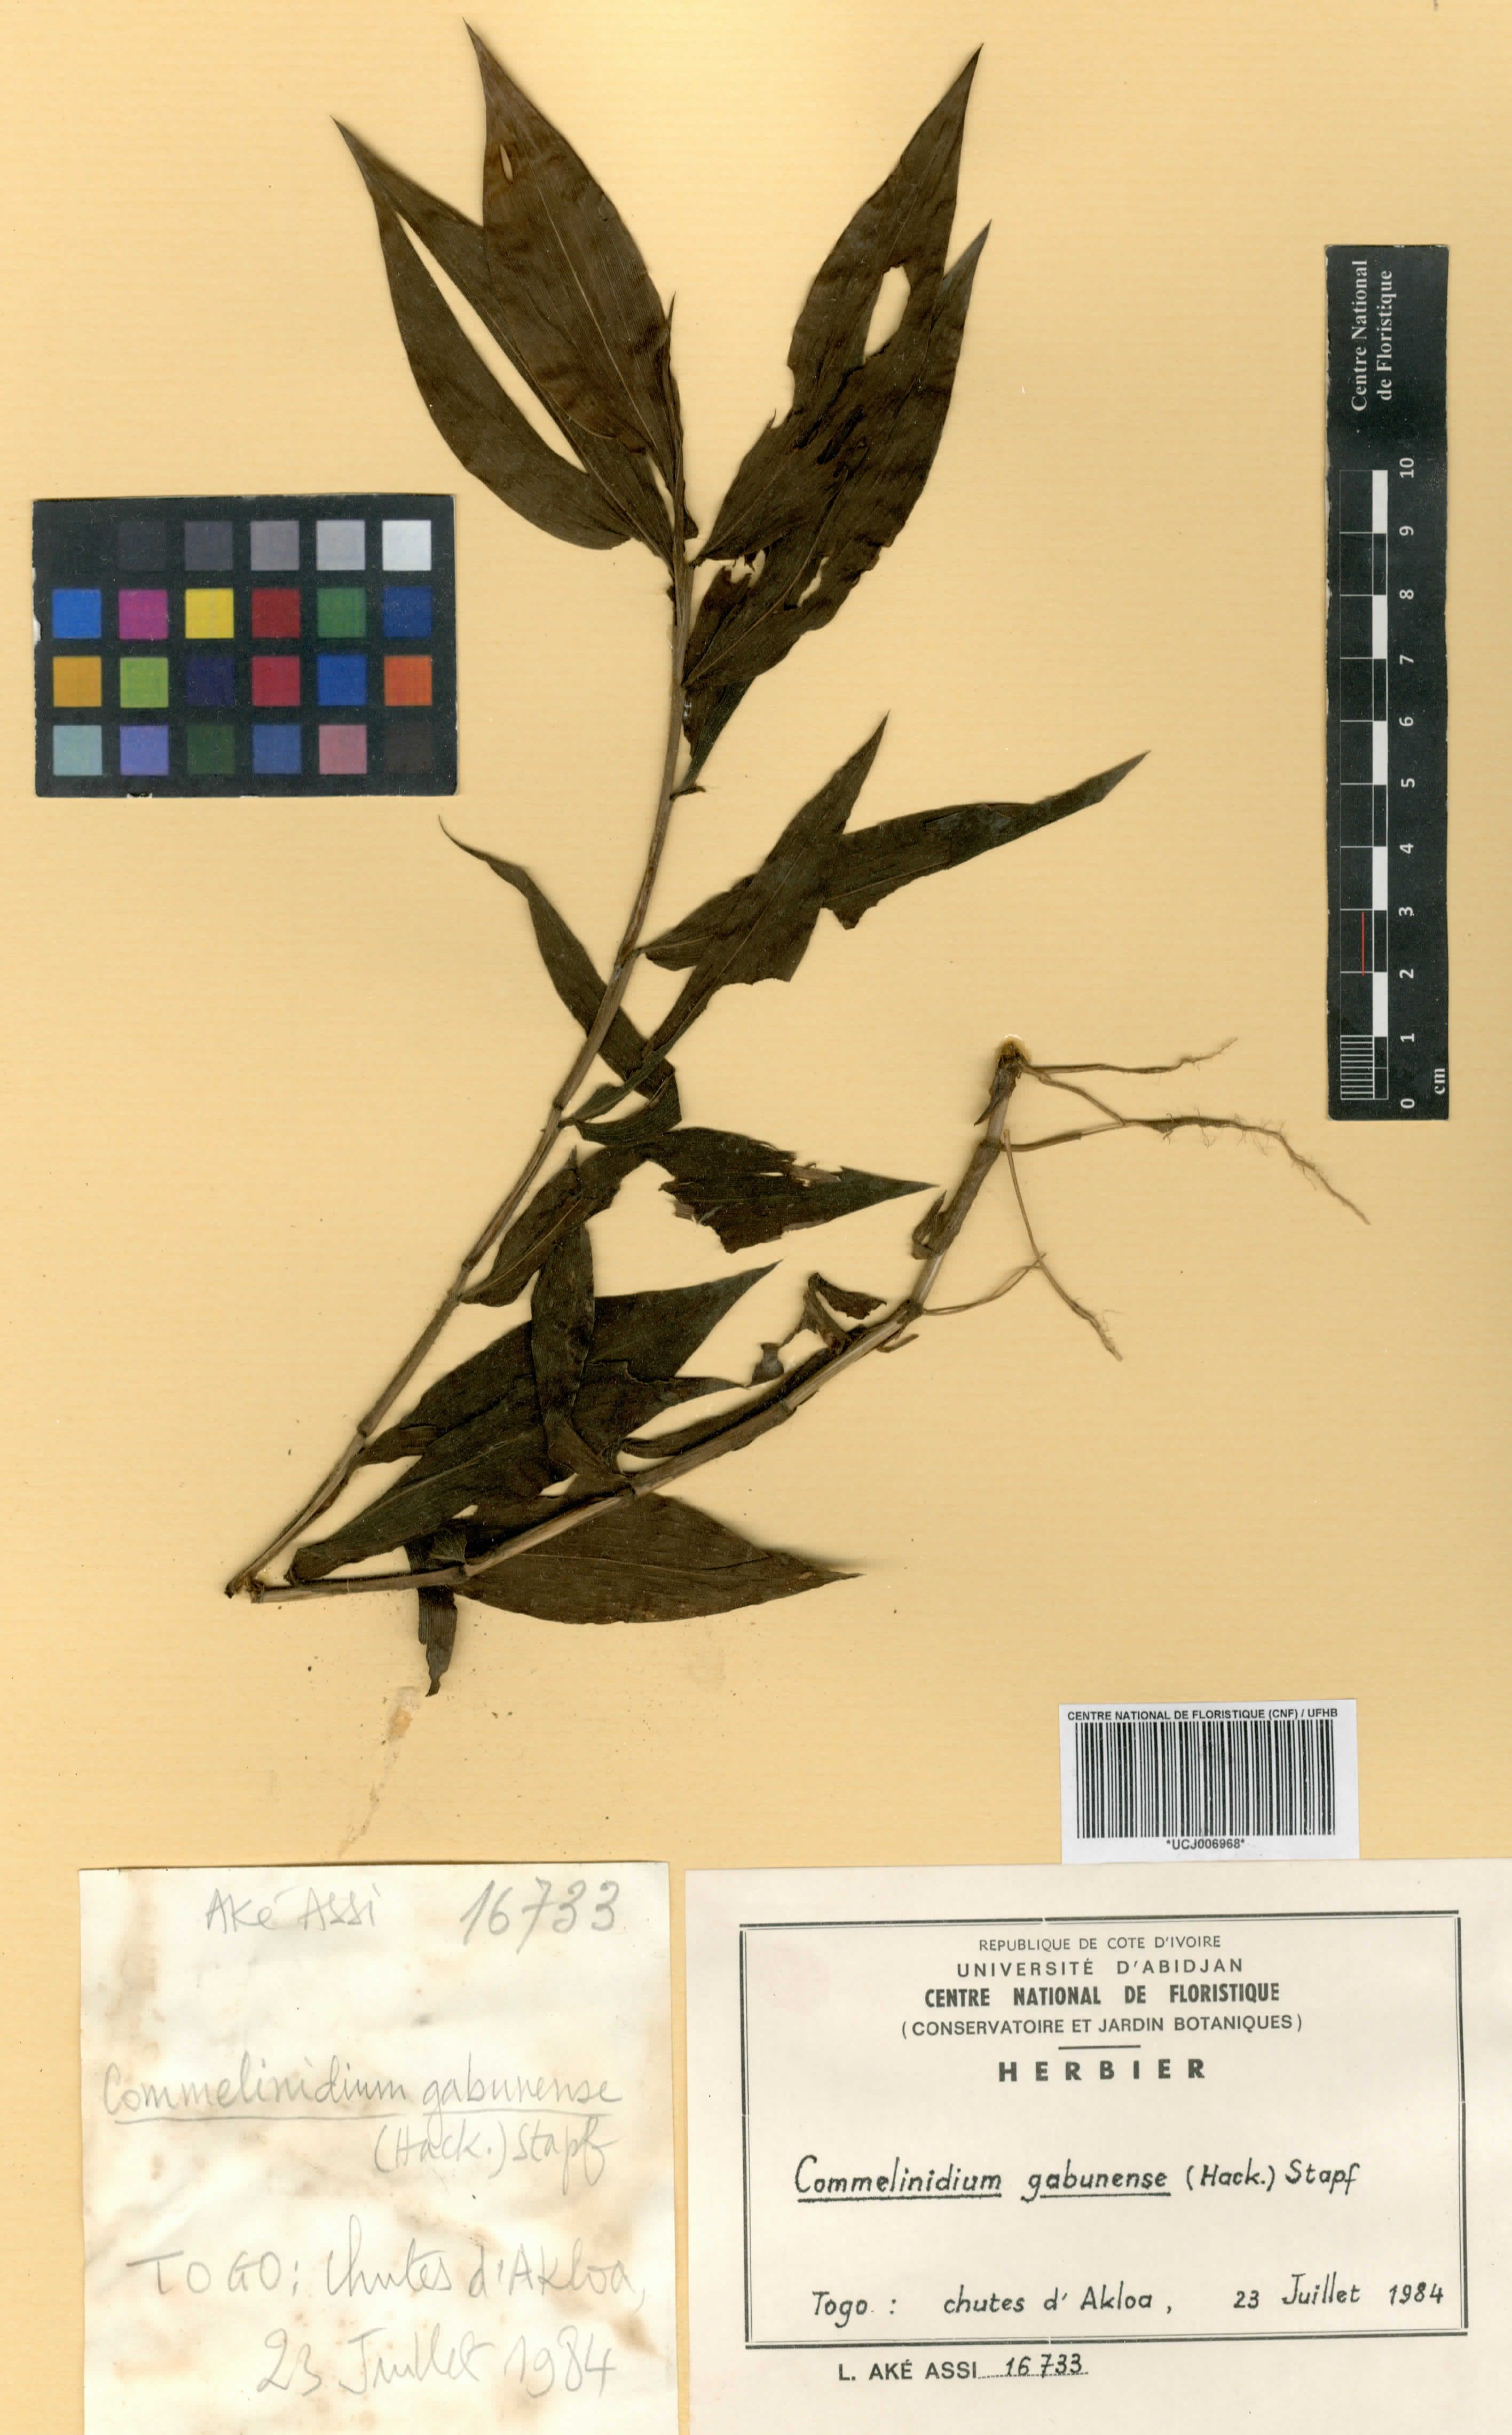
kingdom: Plantae
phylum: Tracheophyta
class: Liliopsida
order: Poales
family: Poaceae
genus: Acroceras
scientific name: Acroceras gabunense
